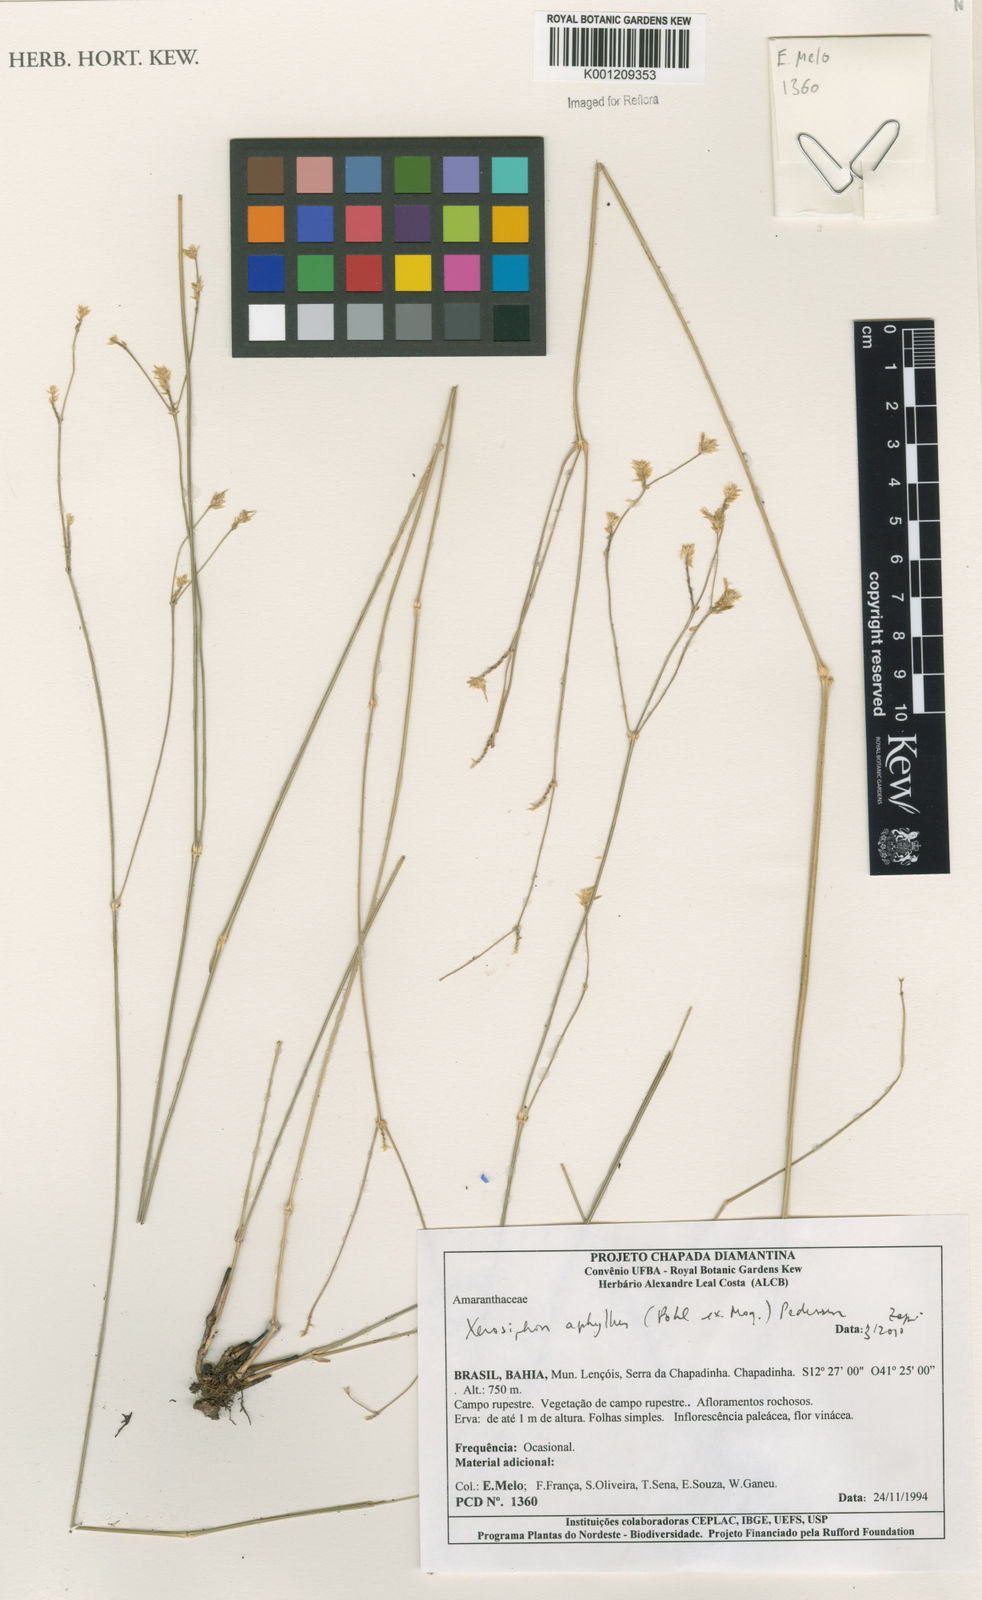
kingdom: Plantae
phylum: Tracheophyta
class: Magnoliopsida
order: Caryophyllales
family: Amaranthaceae
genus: Gomphrena
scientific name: Gomphrena aphylla
